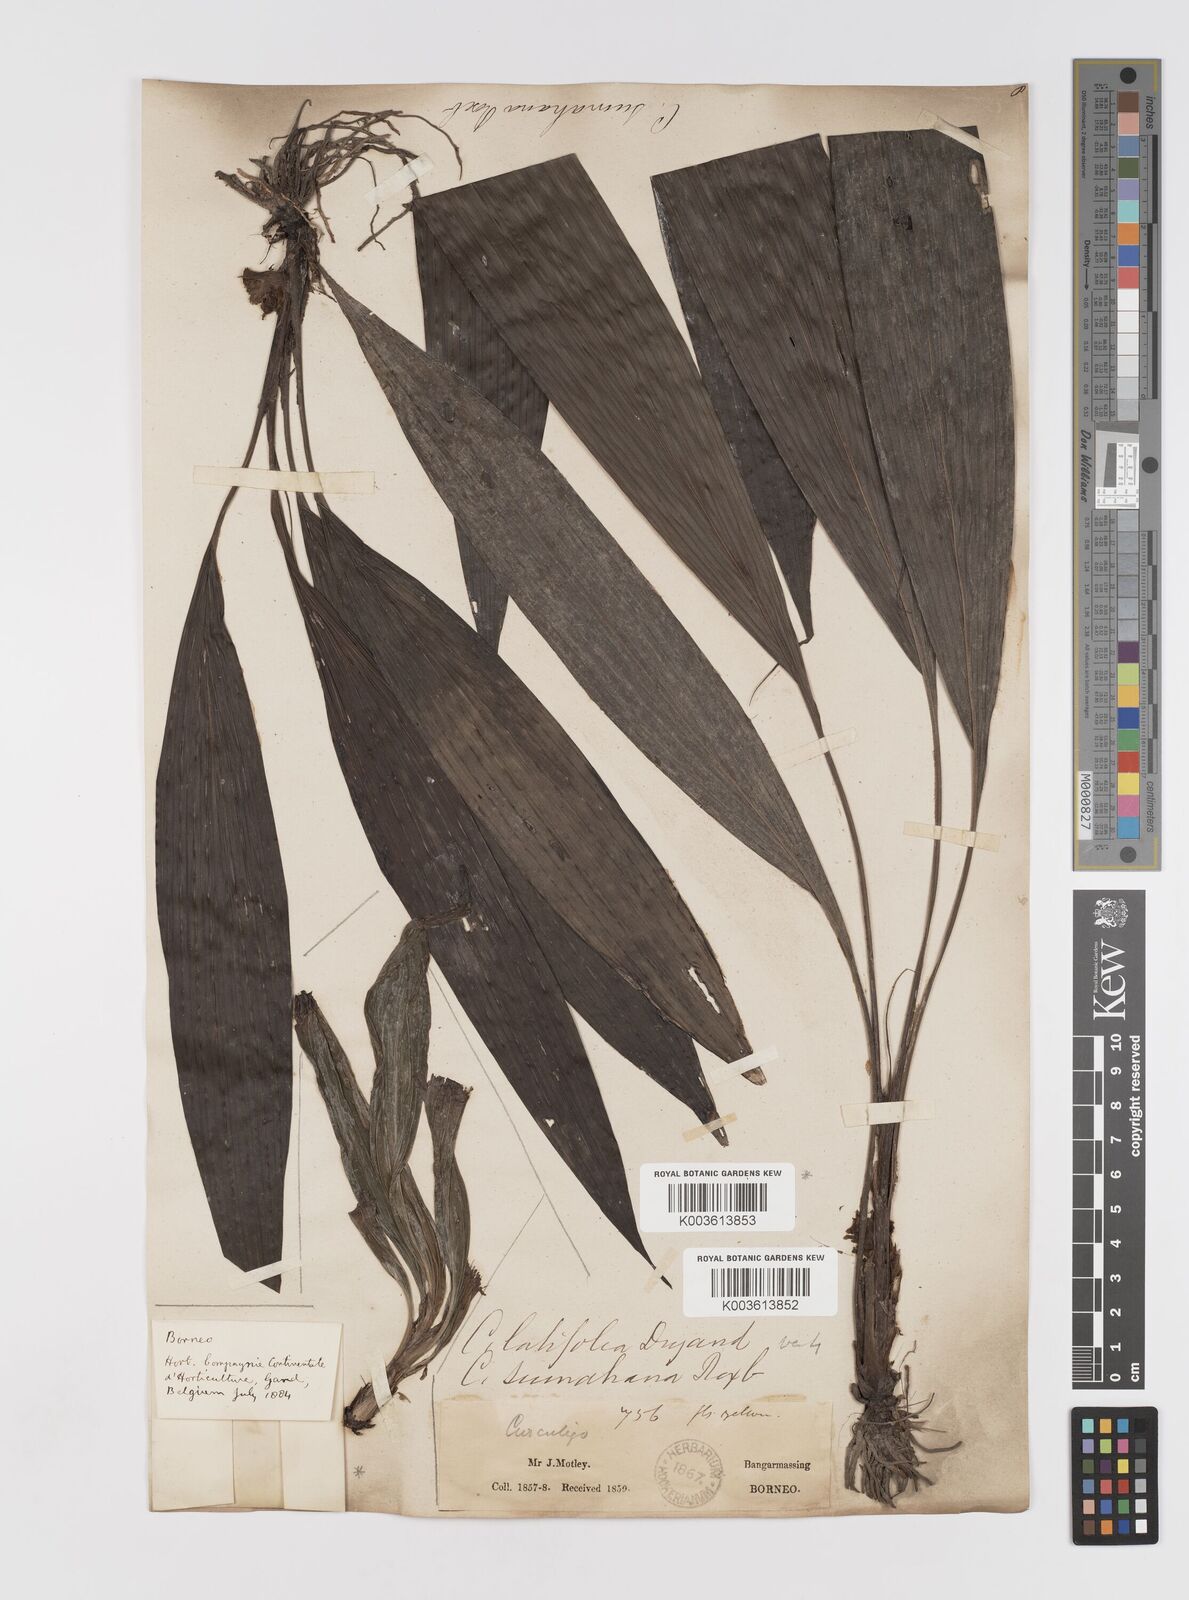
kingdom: Plantae
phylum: Tracheophyta
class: Liliopsida
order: Asparagales
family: Hypoxidaceae
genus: Curculigo
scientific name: Curculigo latifolia
